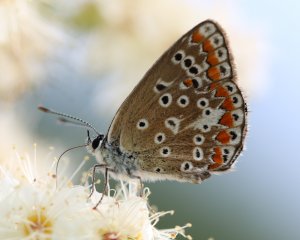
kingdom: Animalia
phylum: Arthropoda
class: Insecta
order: Lepidoptera
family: Lycaenidae
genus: Polyommatus
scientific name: Polyommatus icarus
